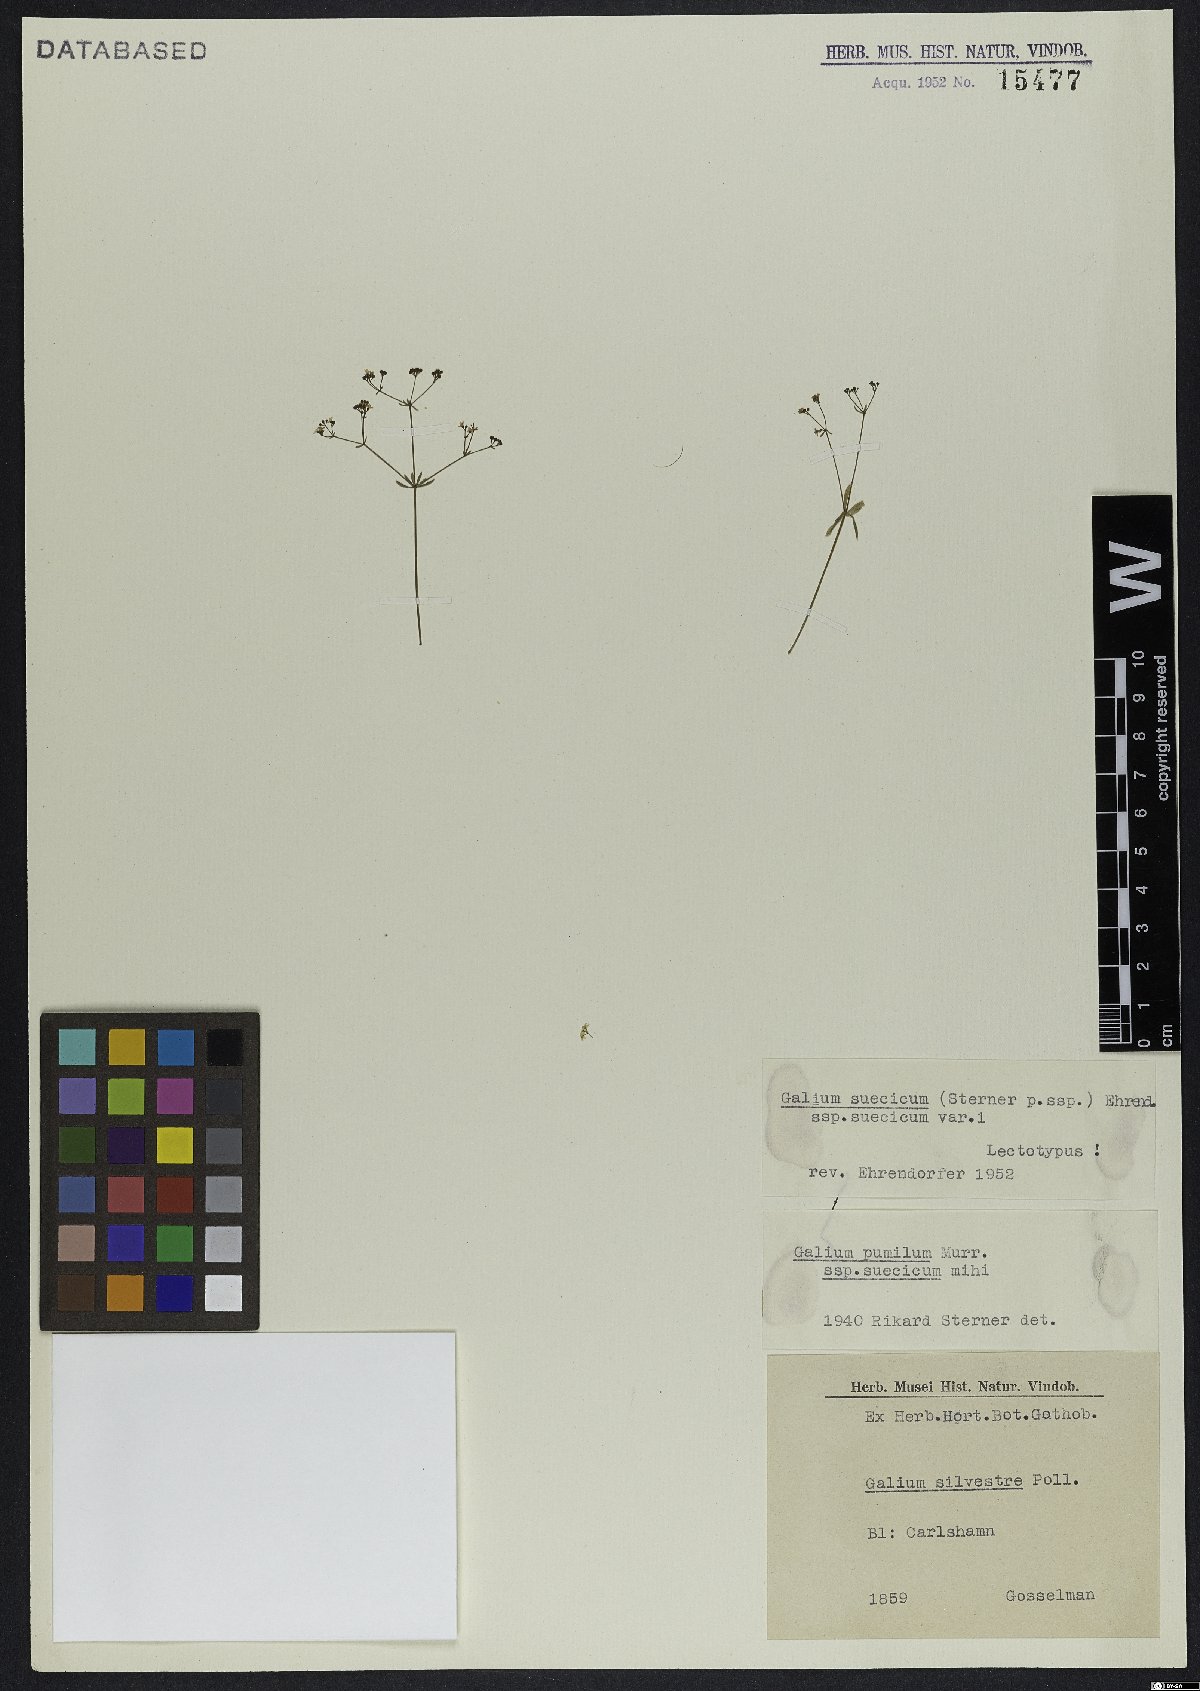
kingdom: Plantae
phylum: Tracheophyta
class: Magnoliopsida
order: Gentianales
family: Rubiaceae
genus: Galium
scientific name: Galium suecicum
